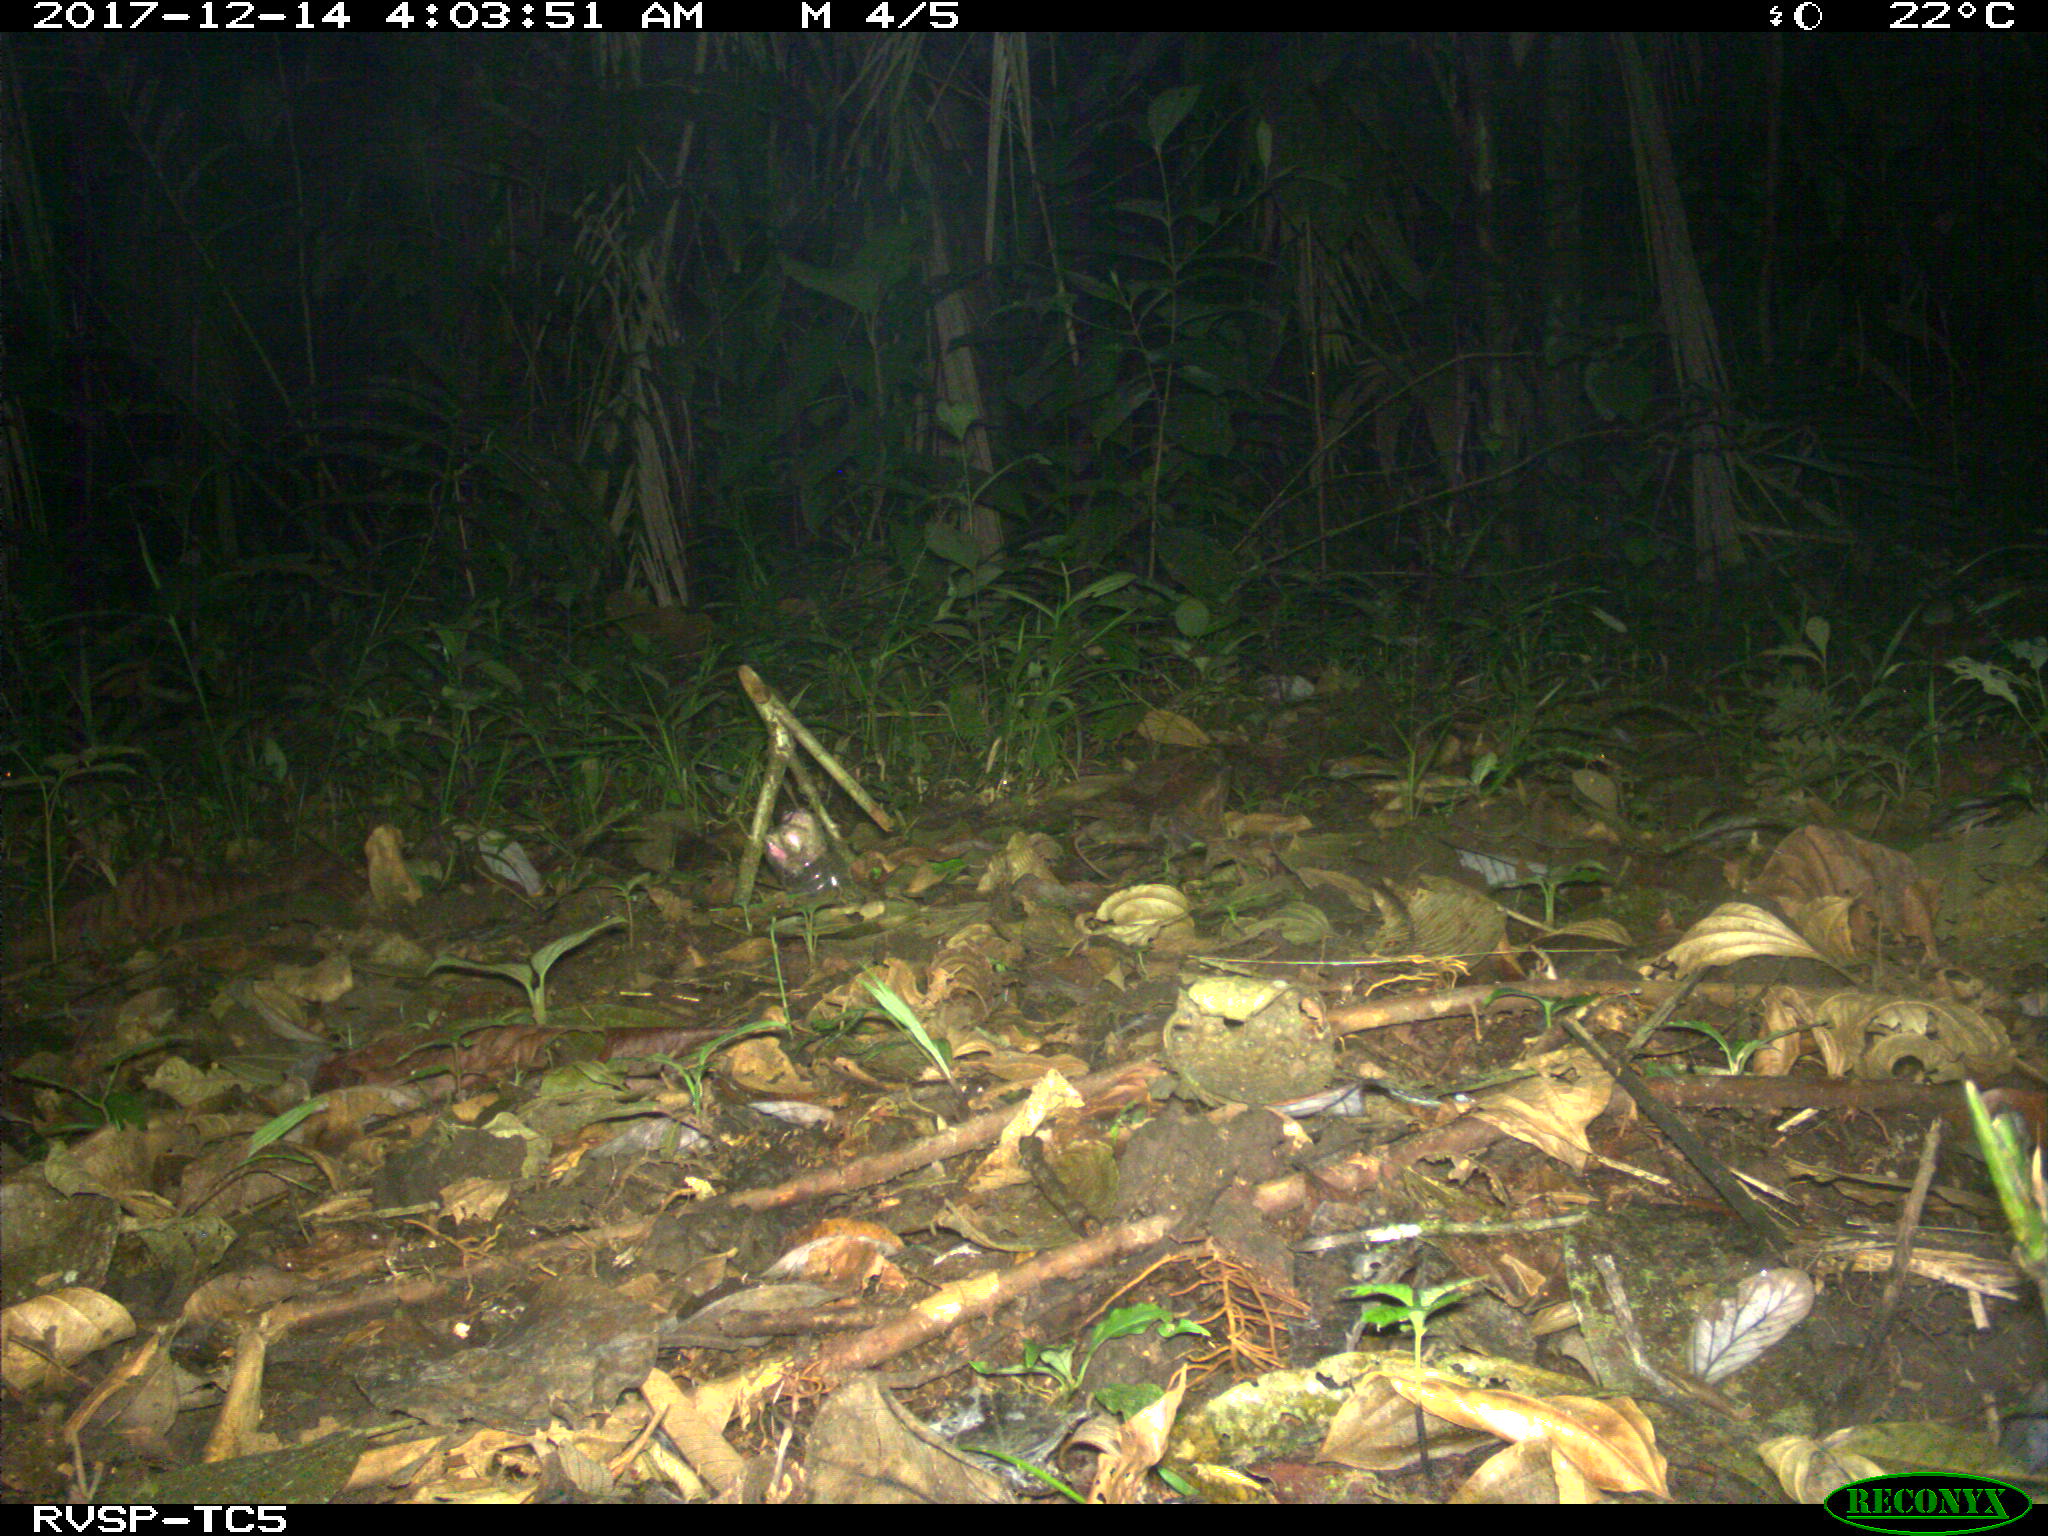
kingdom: Animalia
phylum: Chordata
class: Mammalia
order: Carnivora
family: Felidae
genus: Leopardus
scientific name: Leopardus pardalis
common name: Ocelot
